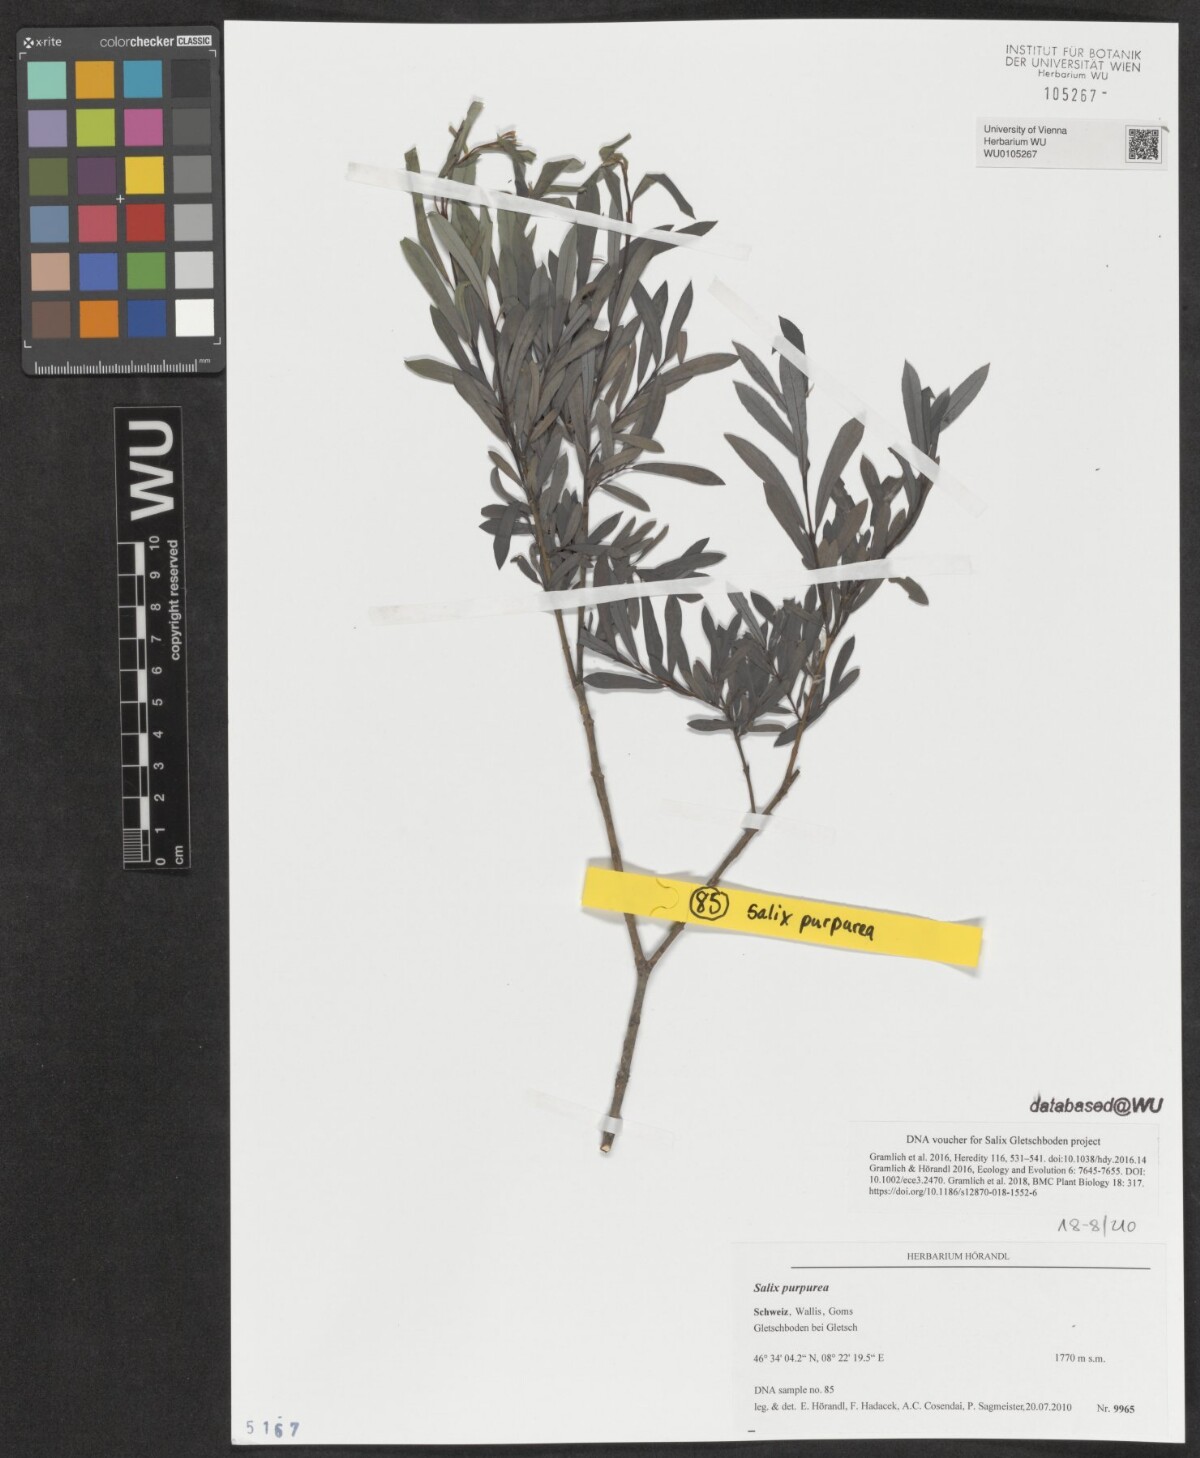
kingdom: Plantae
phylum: Tracheophyta
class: Magnoliopsida
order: Malpighiales
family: Salicaceae
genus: Salix
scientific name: Salix purpurea
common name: Purple willow
